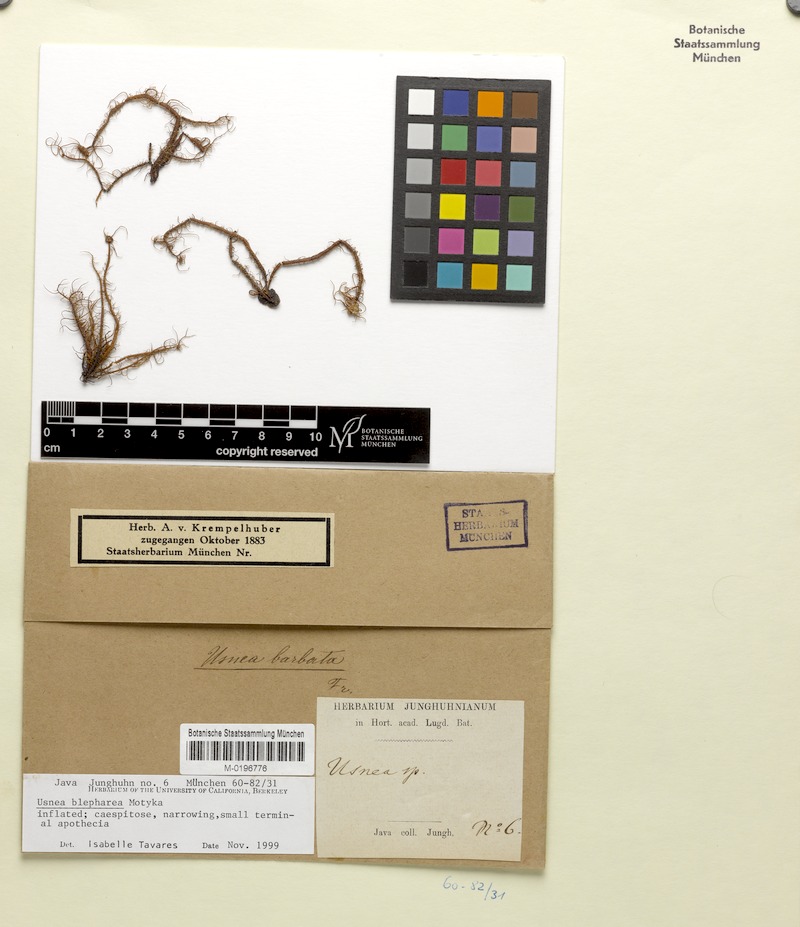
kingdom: Fungi
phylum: Ascomycota
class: Lecanoromycetes
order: Lecanorales
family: Parmeliaceae
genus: Usnea
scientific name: Usnea blepharea
